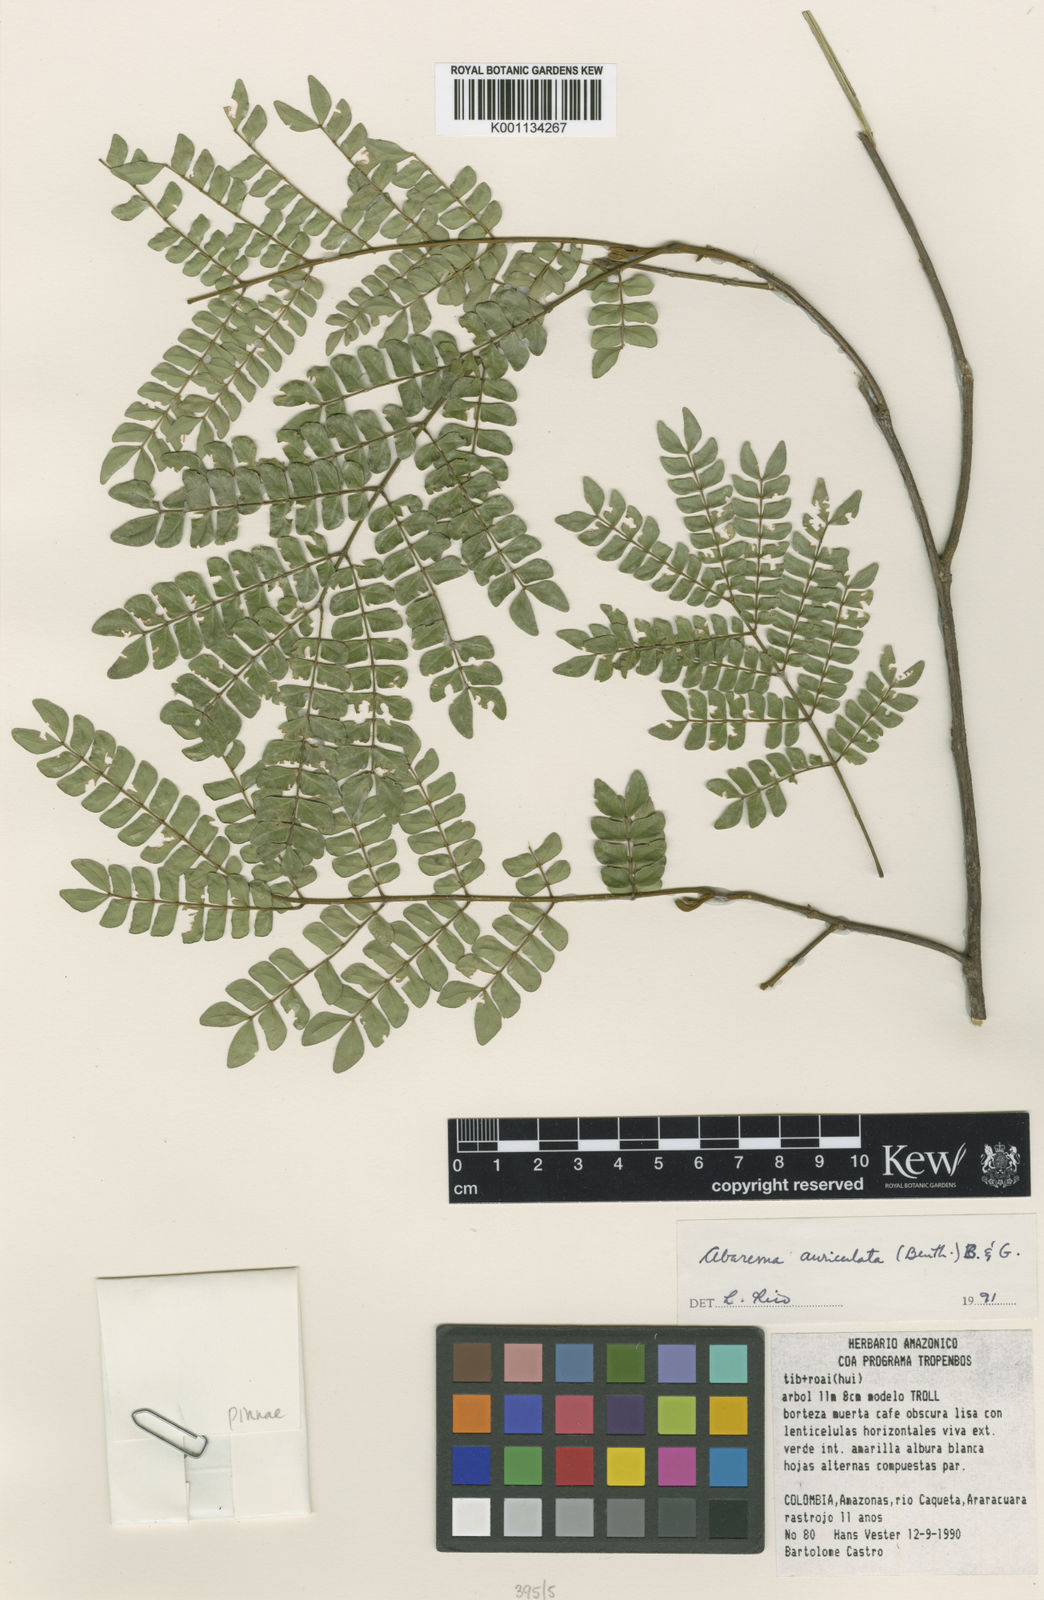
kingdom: Plantae
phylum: Tracheophyta
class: Magnoliopsida
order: Fabales
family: Fabaceae
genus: Jupunba
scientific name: Jupunba auriculata
